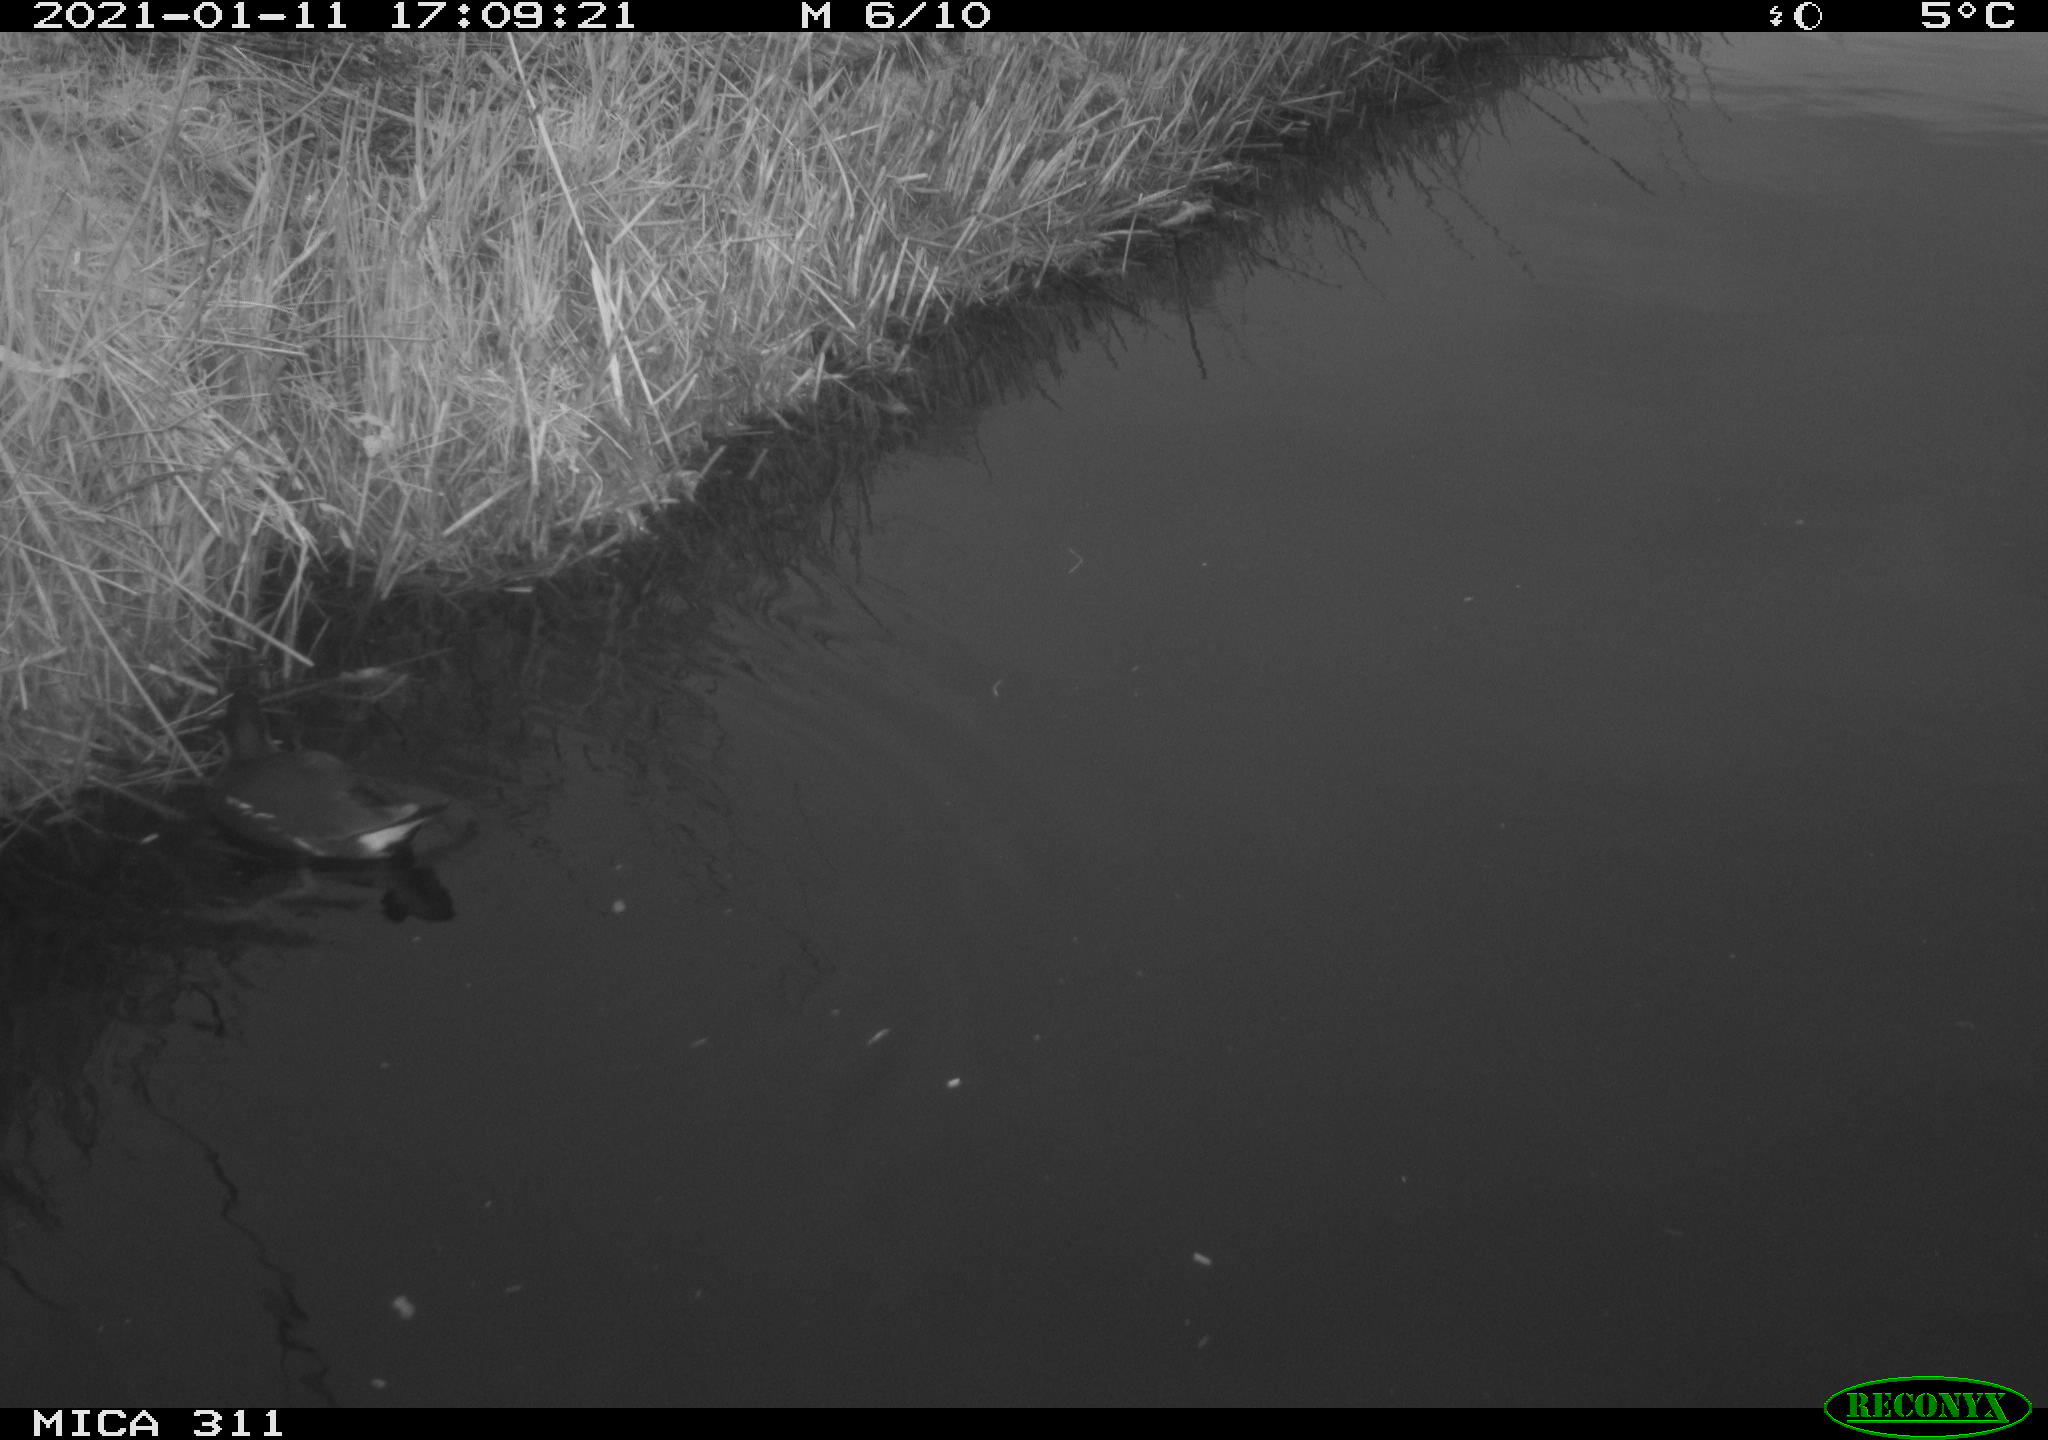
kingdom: Animalia
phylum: Chordata
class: Aves
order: Gruiformes
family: Rallidae
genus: Gallinula
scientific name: Gallinula chloropus
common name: Common moorhen
